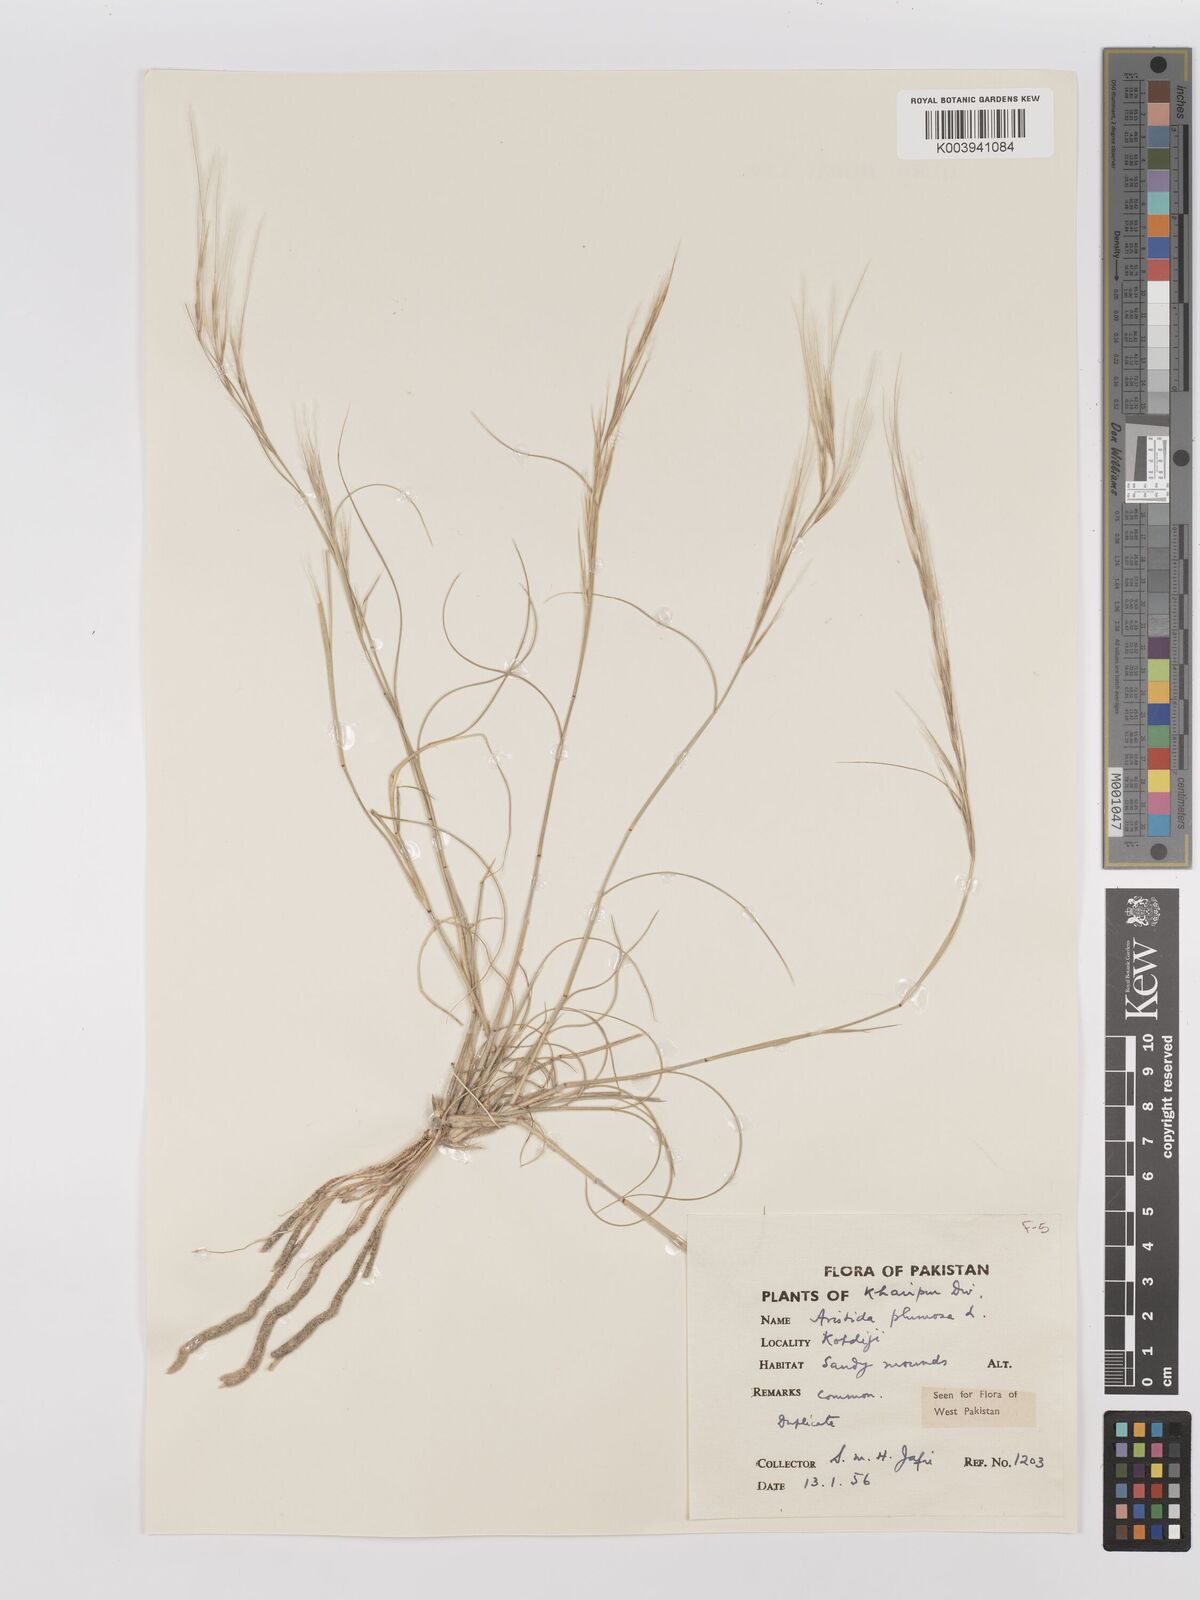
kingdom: Plantae
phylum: Tracheophyta
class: Liliopsida
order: Poales
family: Poaceae
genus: Stipagrostis
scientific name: Stipagrostis plumosa
